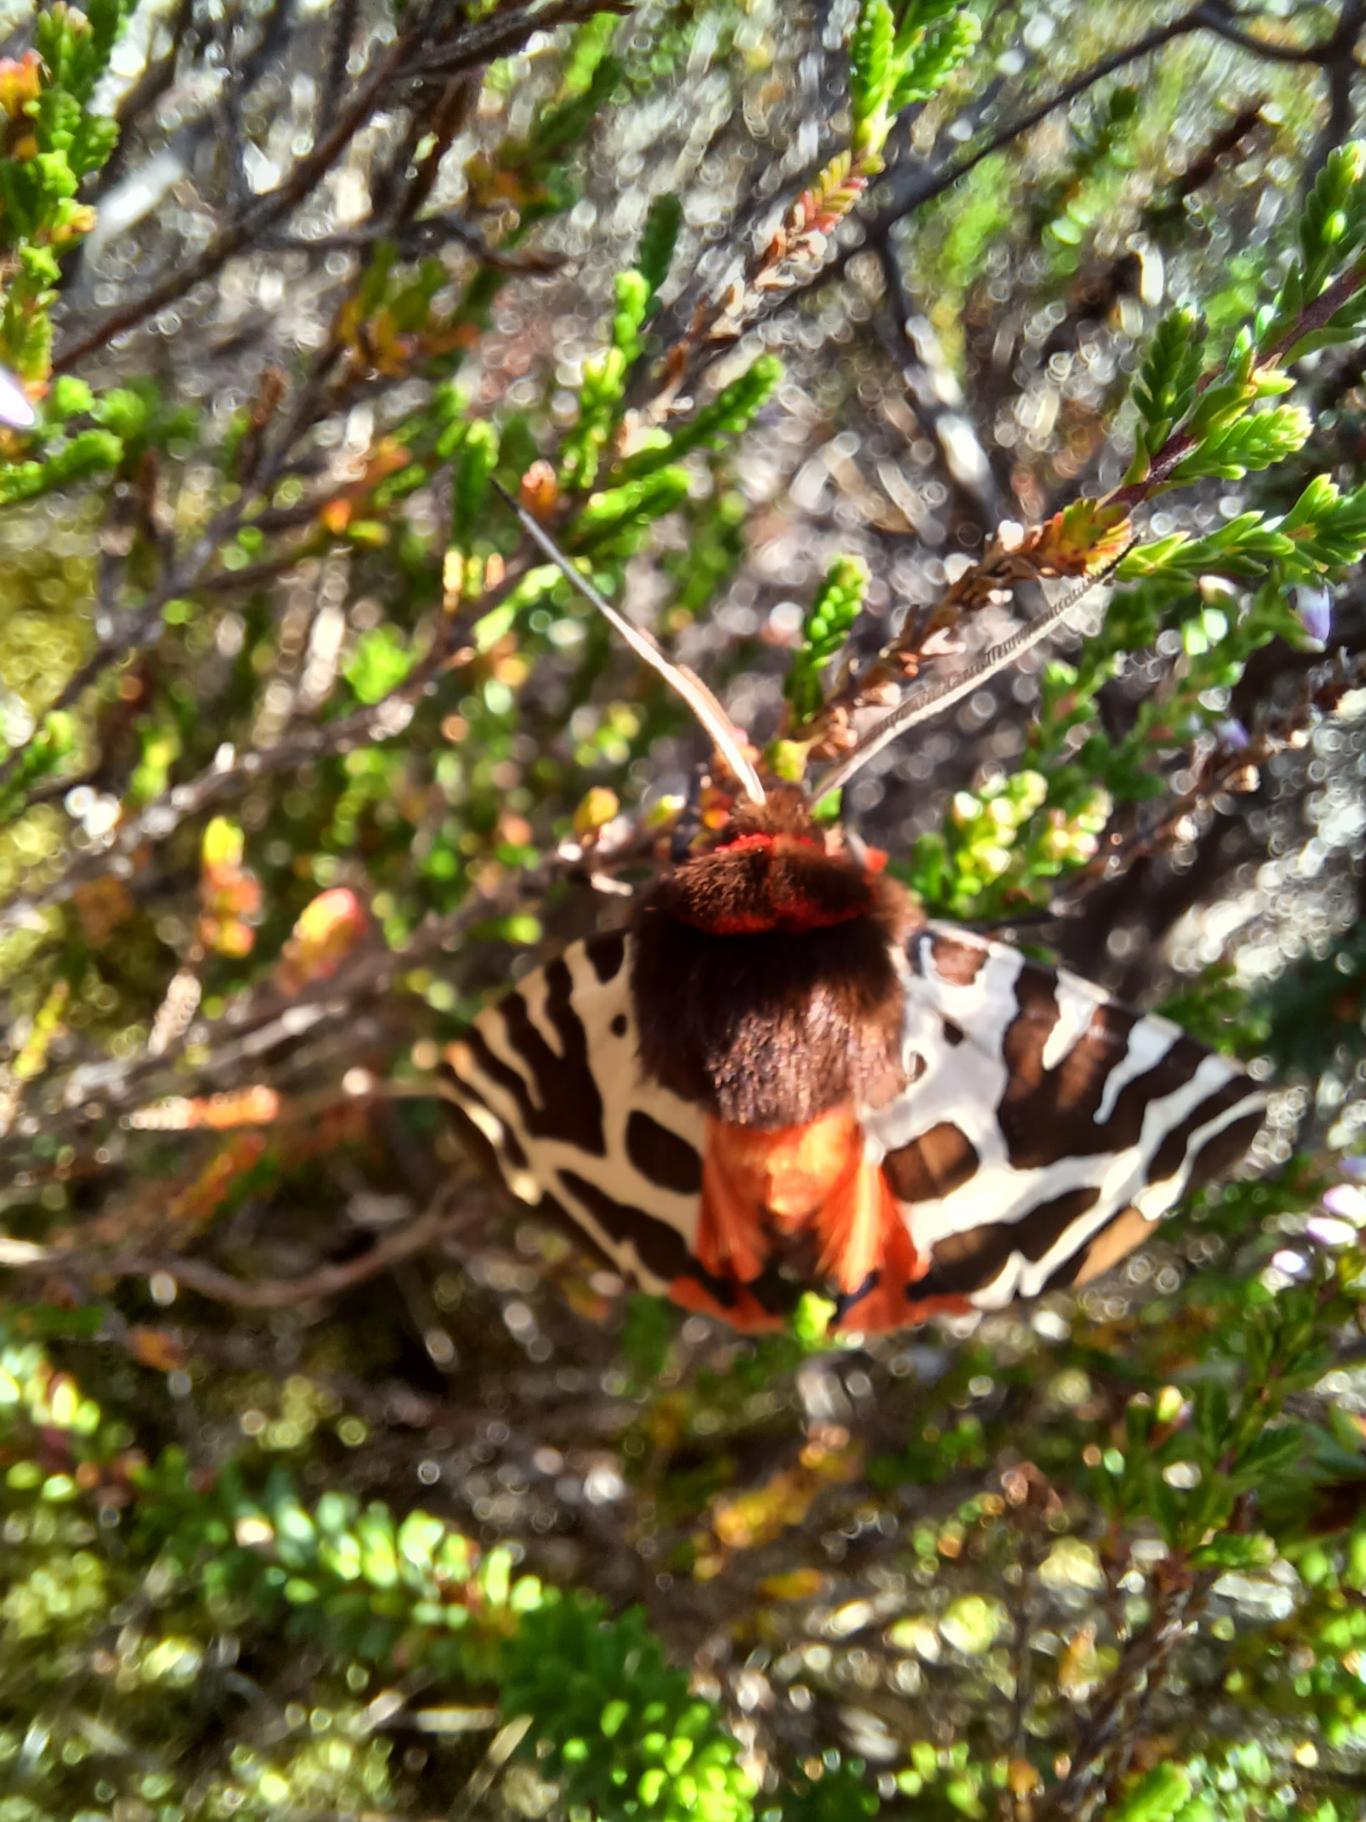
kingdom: Animalia
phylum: Arthropoda
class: Insecta
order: Lepidoptera
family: Erebidae
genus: Arctia
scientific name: Arctia caja
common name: Brun bjørn
